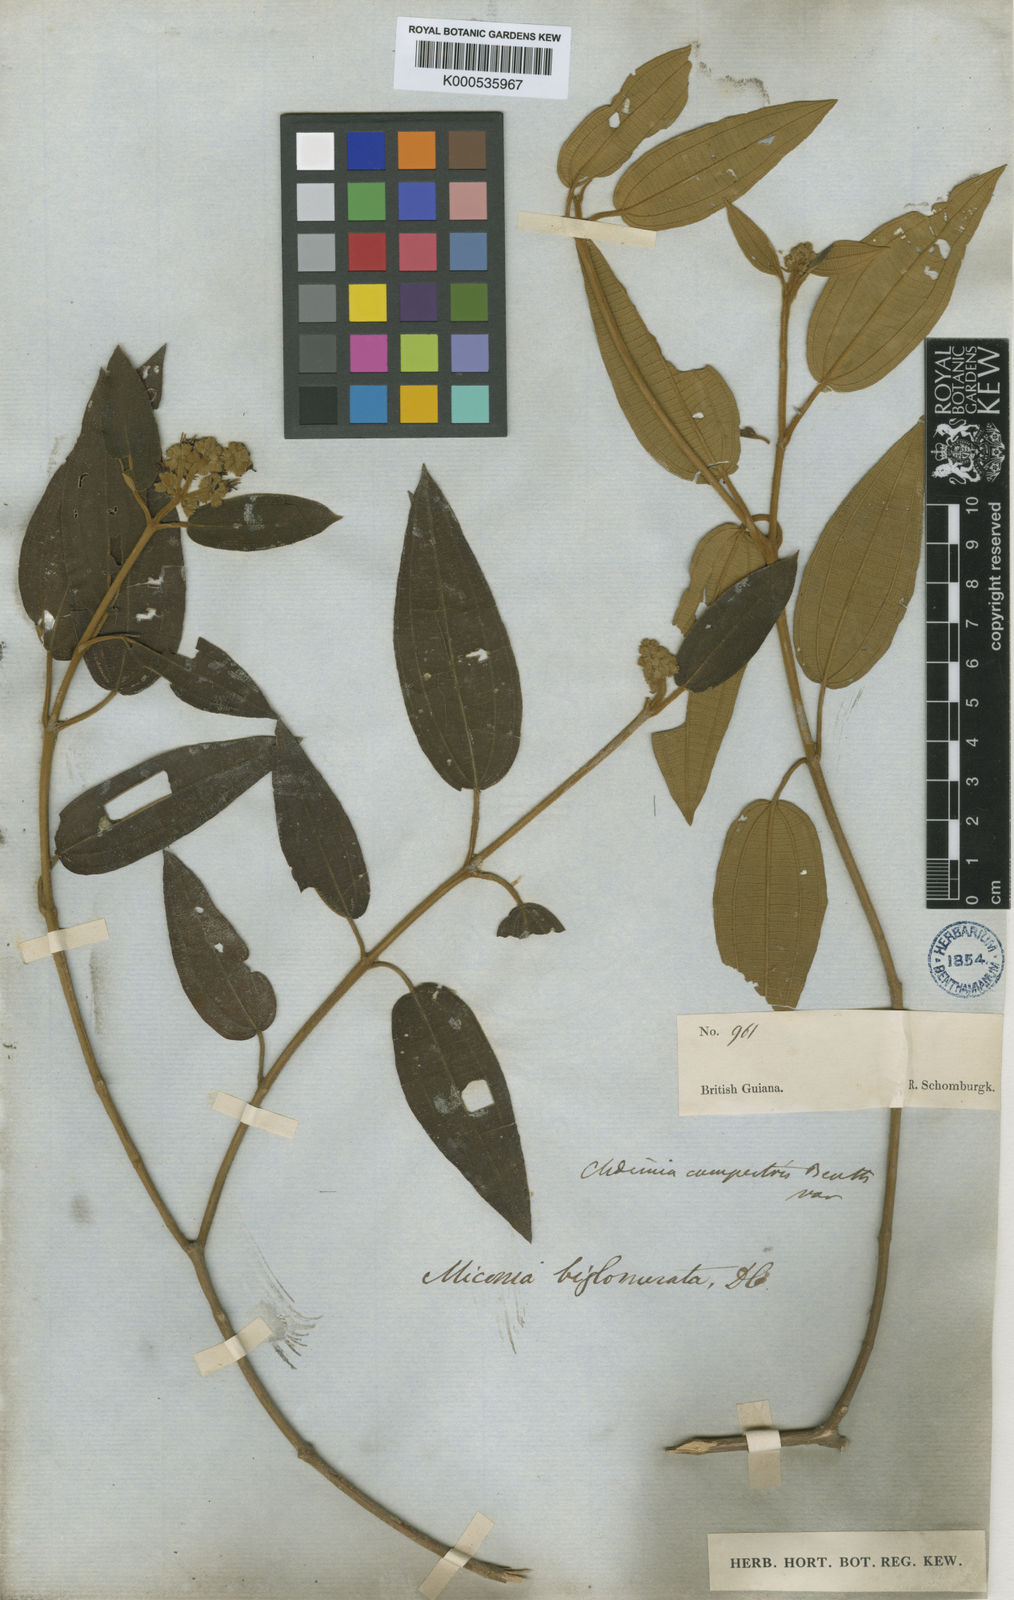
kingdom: Plantae
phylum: Tracheophyta
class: Magnoliopsida
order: Myrtales
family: Melastomataceae
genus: Miconia
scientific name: Miconia biglomerata
